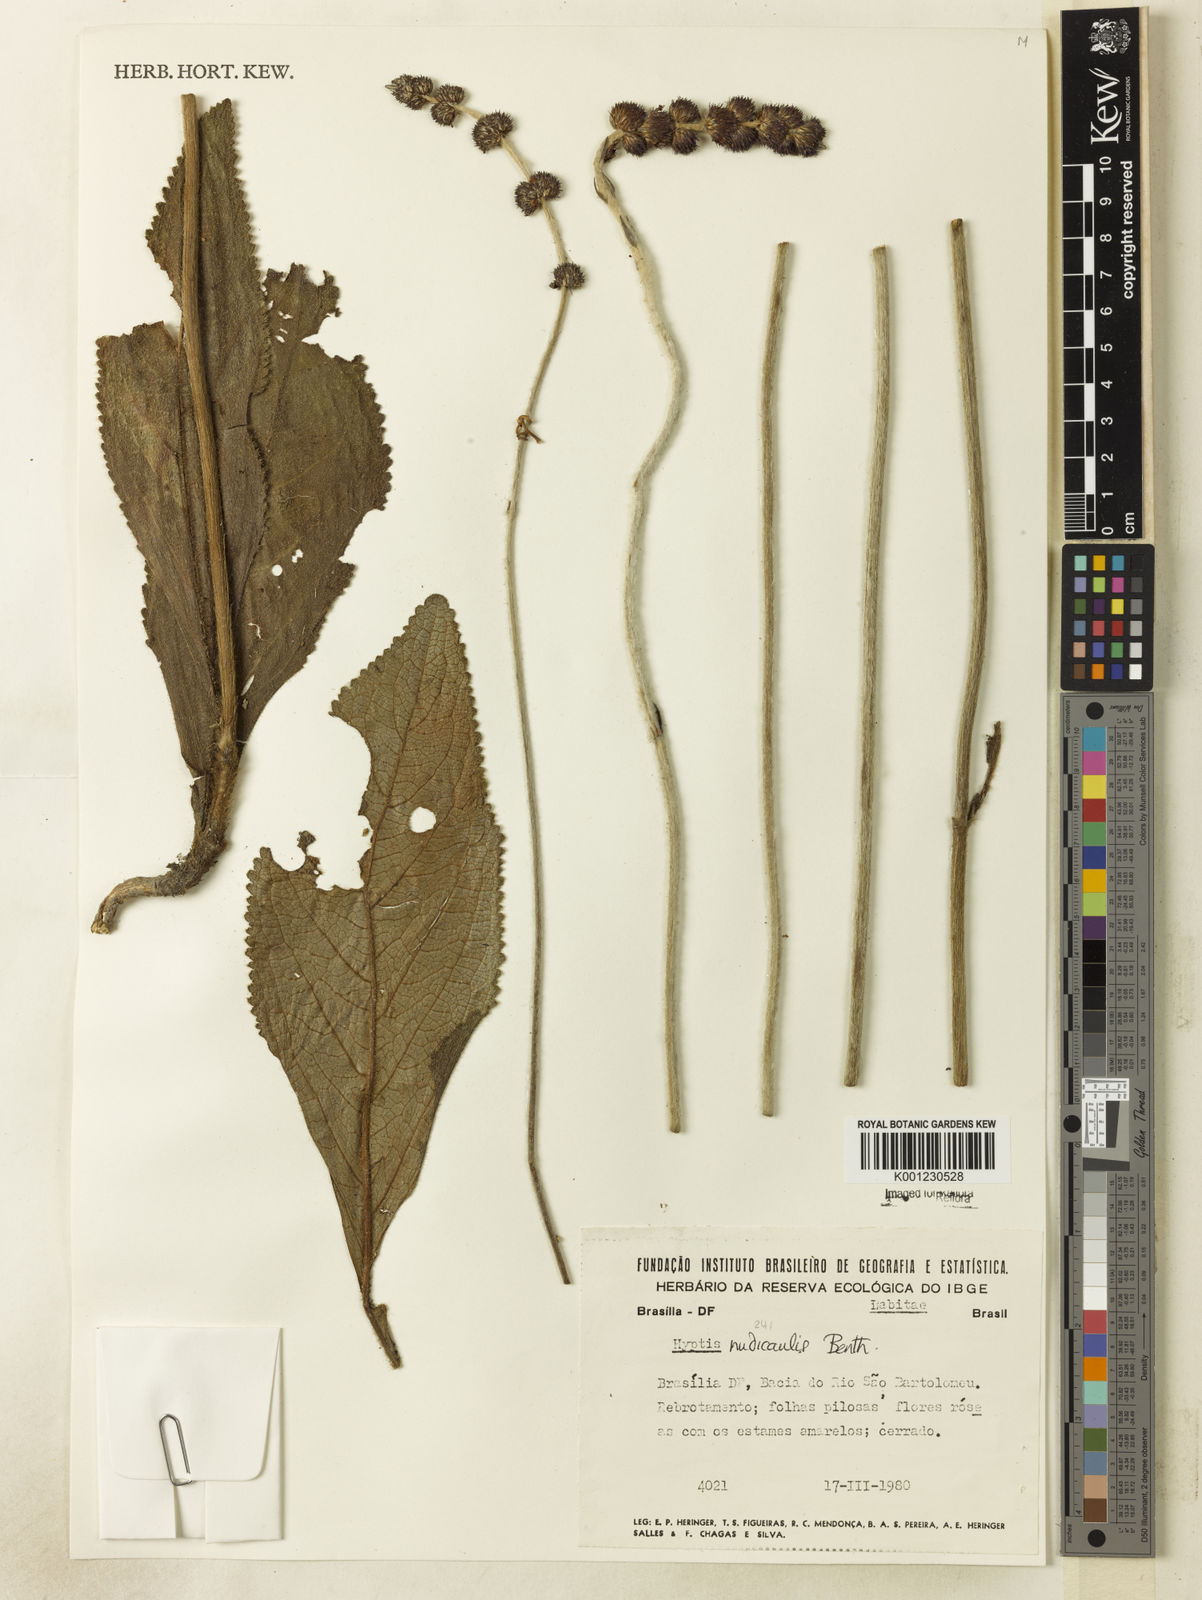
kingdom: Plantae
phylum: Tracheophyta
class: Magnoliopsida
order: Lamiales
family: Lamiaceae
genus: Hyptis
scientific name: Hyptis nudicaulis
